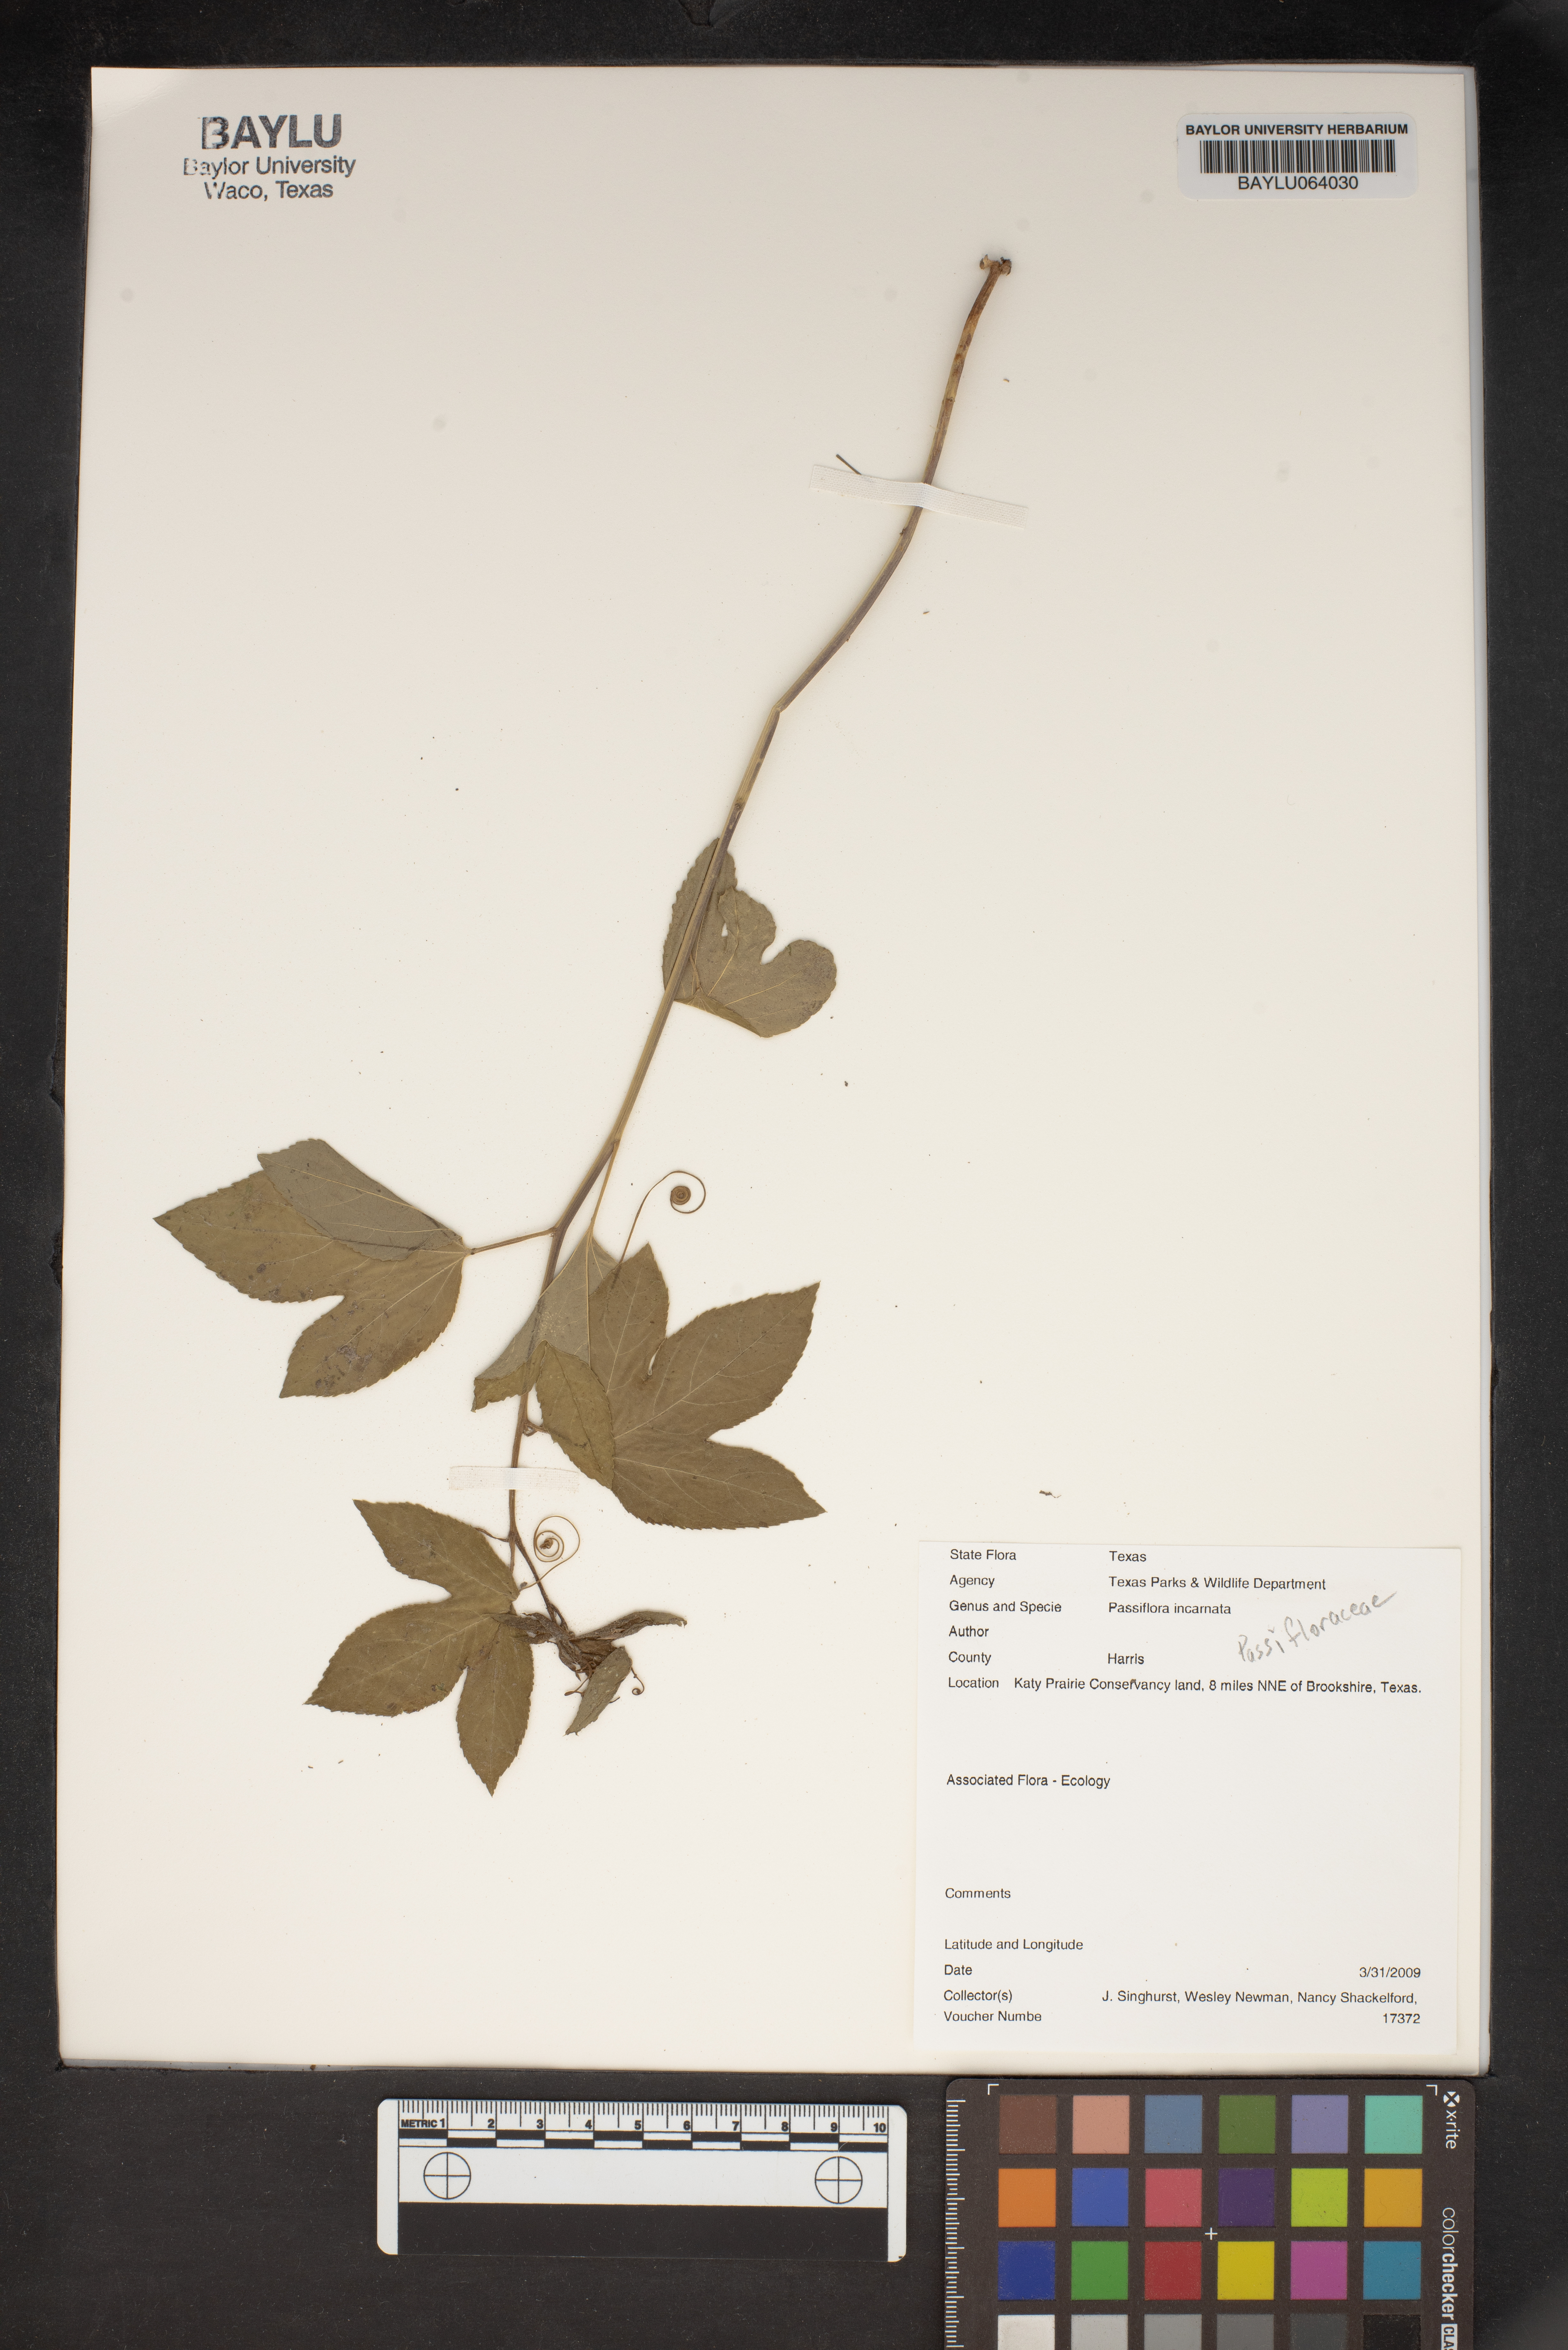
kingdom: Plantae
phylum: Tracheophyta
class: Magnoliopsida
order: Malpighiales
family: Passifloraceae
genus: Passiflora
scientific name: Passiflora incarnata
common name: Apricot-vine
